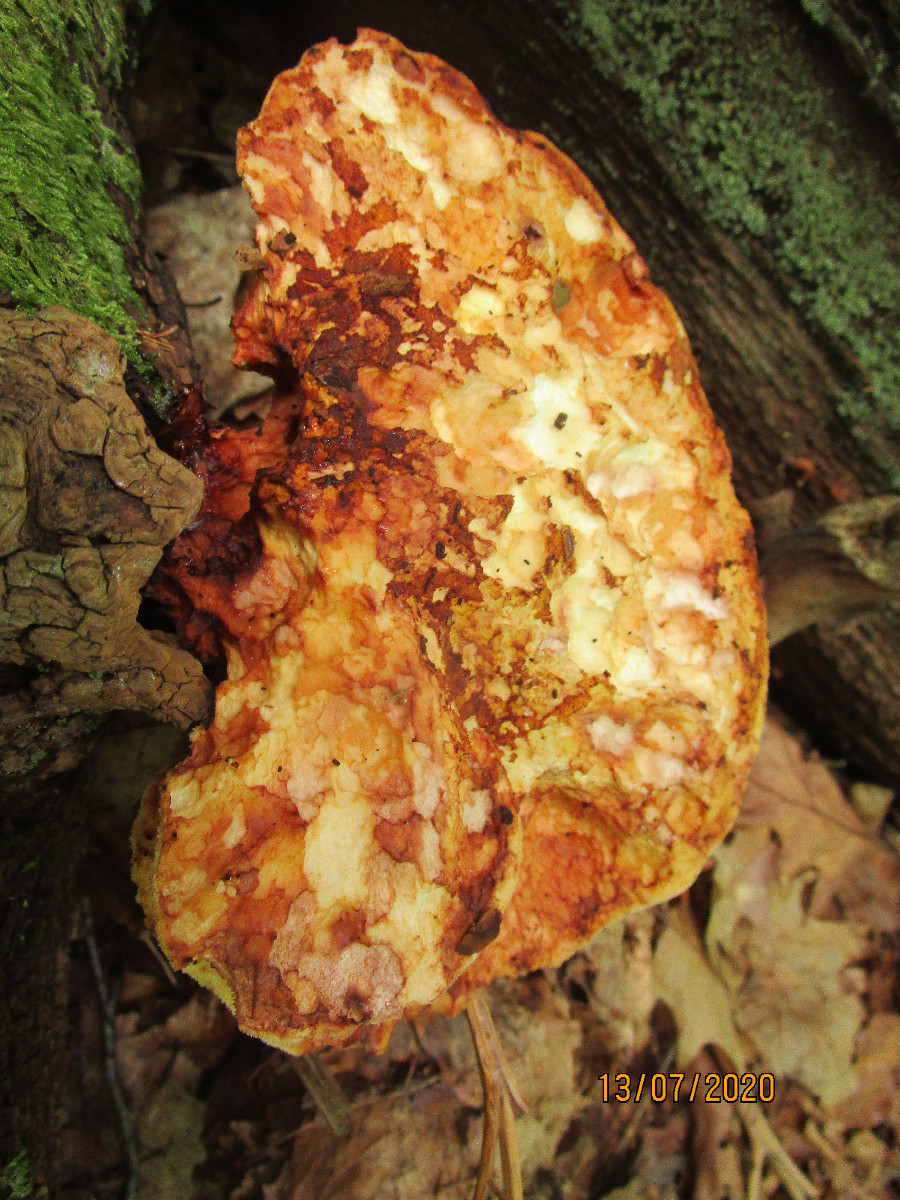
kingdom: Fungi
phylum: Basidiomycota
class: Agaricomycetes
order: Polyporales
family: Fomitopsidaceae
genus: Buglossoporus
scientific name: Buglossoporus quercinus
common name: egetunge
